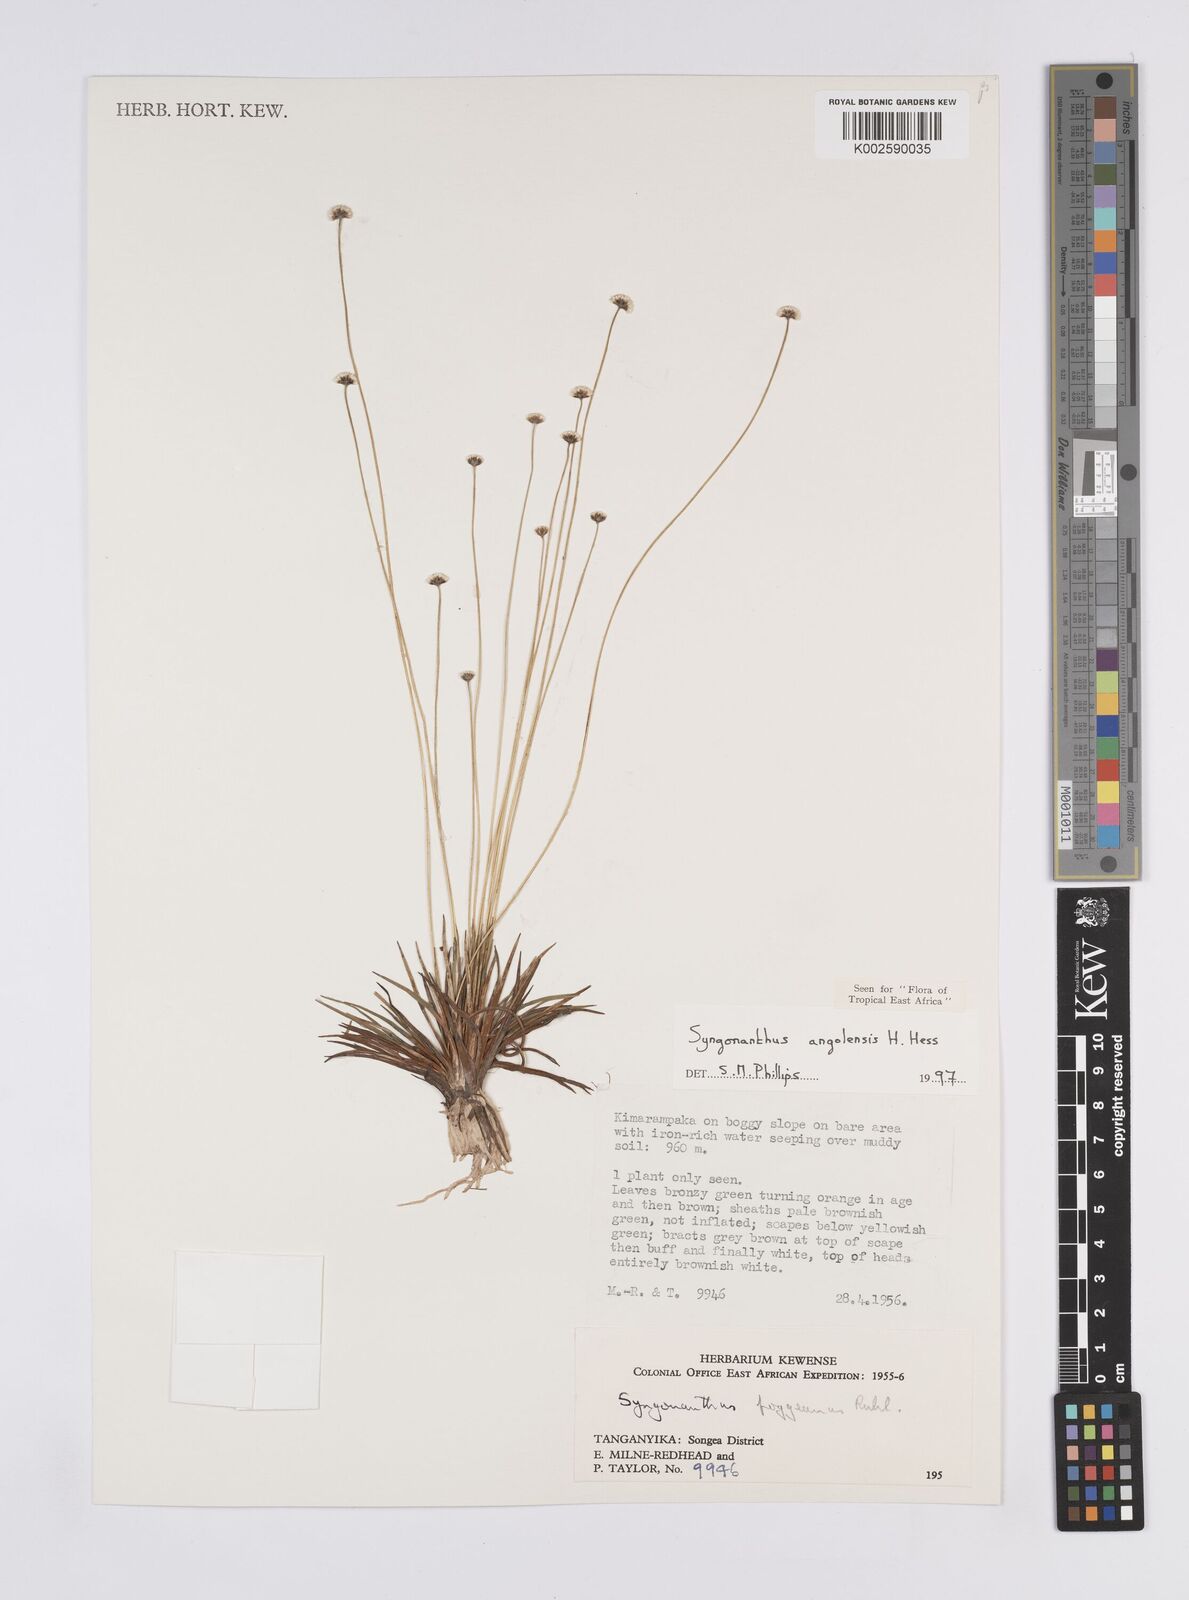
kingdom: Plantae
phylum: Tracheophyta
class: Liliopsida
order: Poales
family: Eriocaulaceae
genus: Syngonanthus
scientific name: Syngonanthus angolensis
